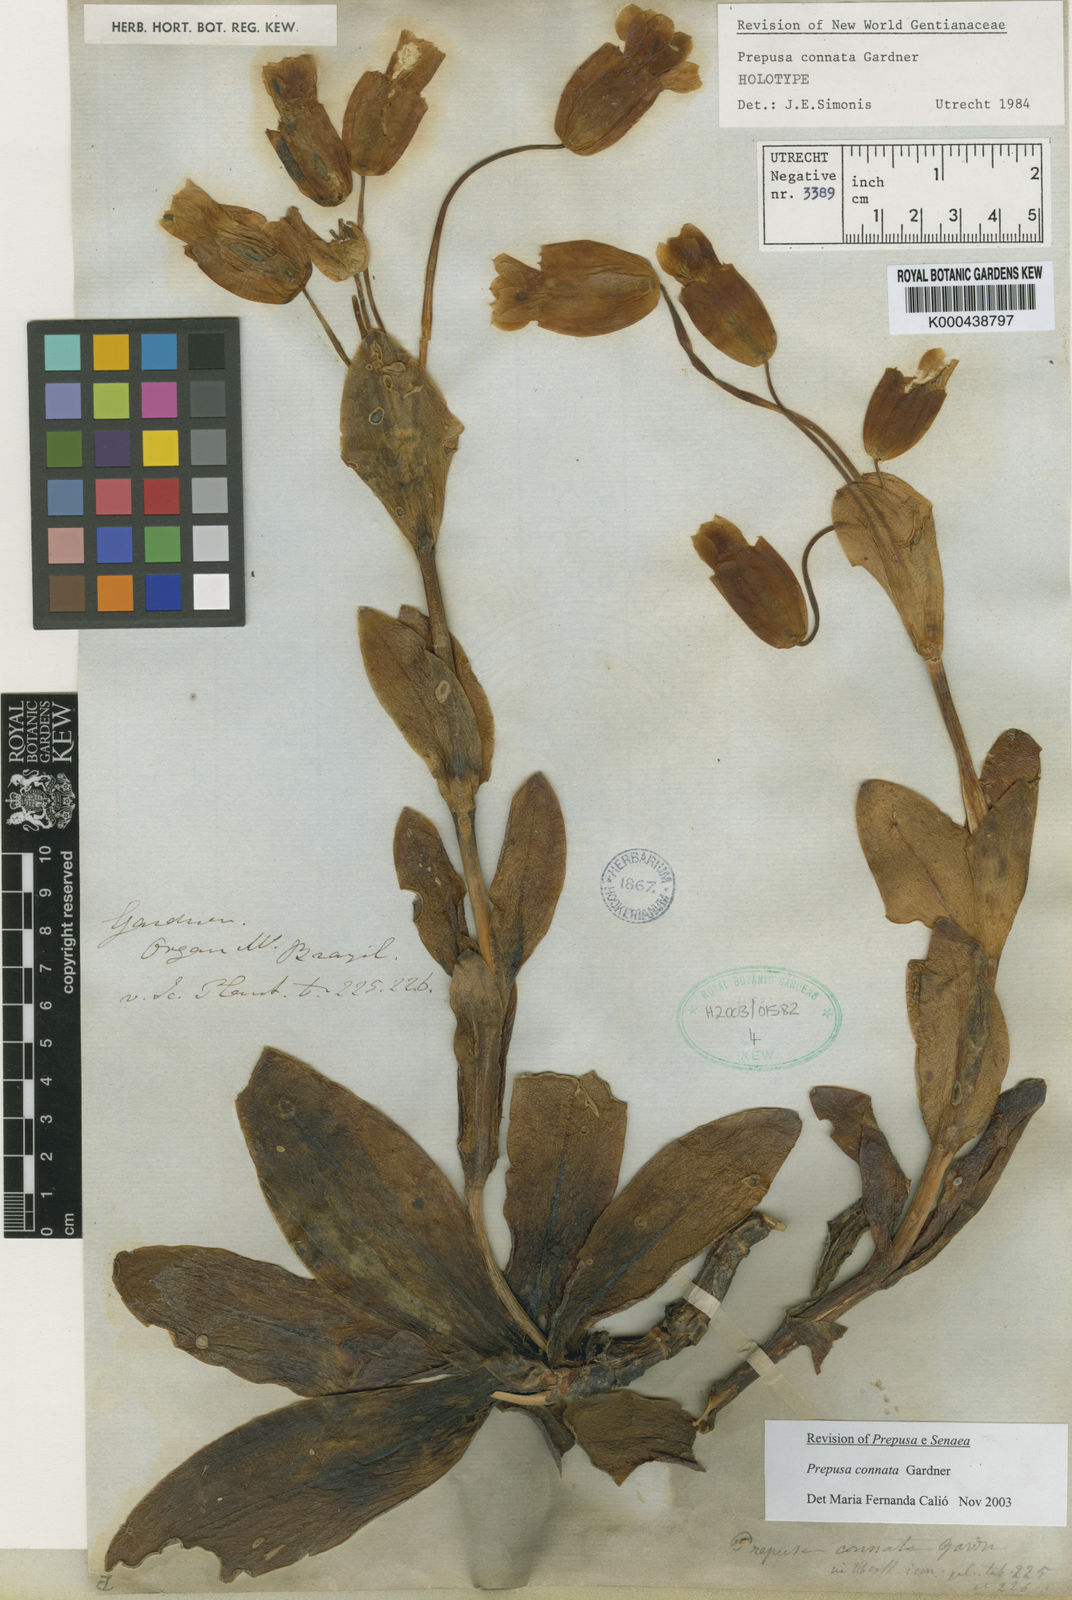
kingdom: Plantae
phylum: Tracheophyta
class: Magnoliopsida
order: Gentianales
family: Gentianaceae
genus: Prepusa
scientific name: Prepusa connata
